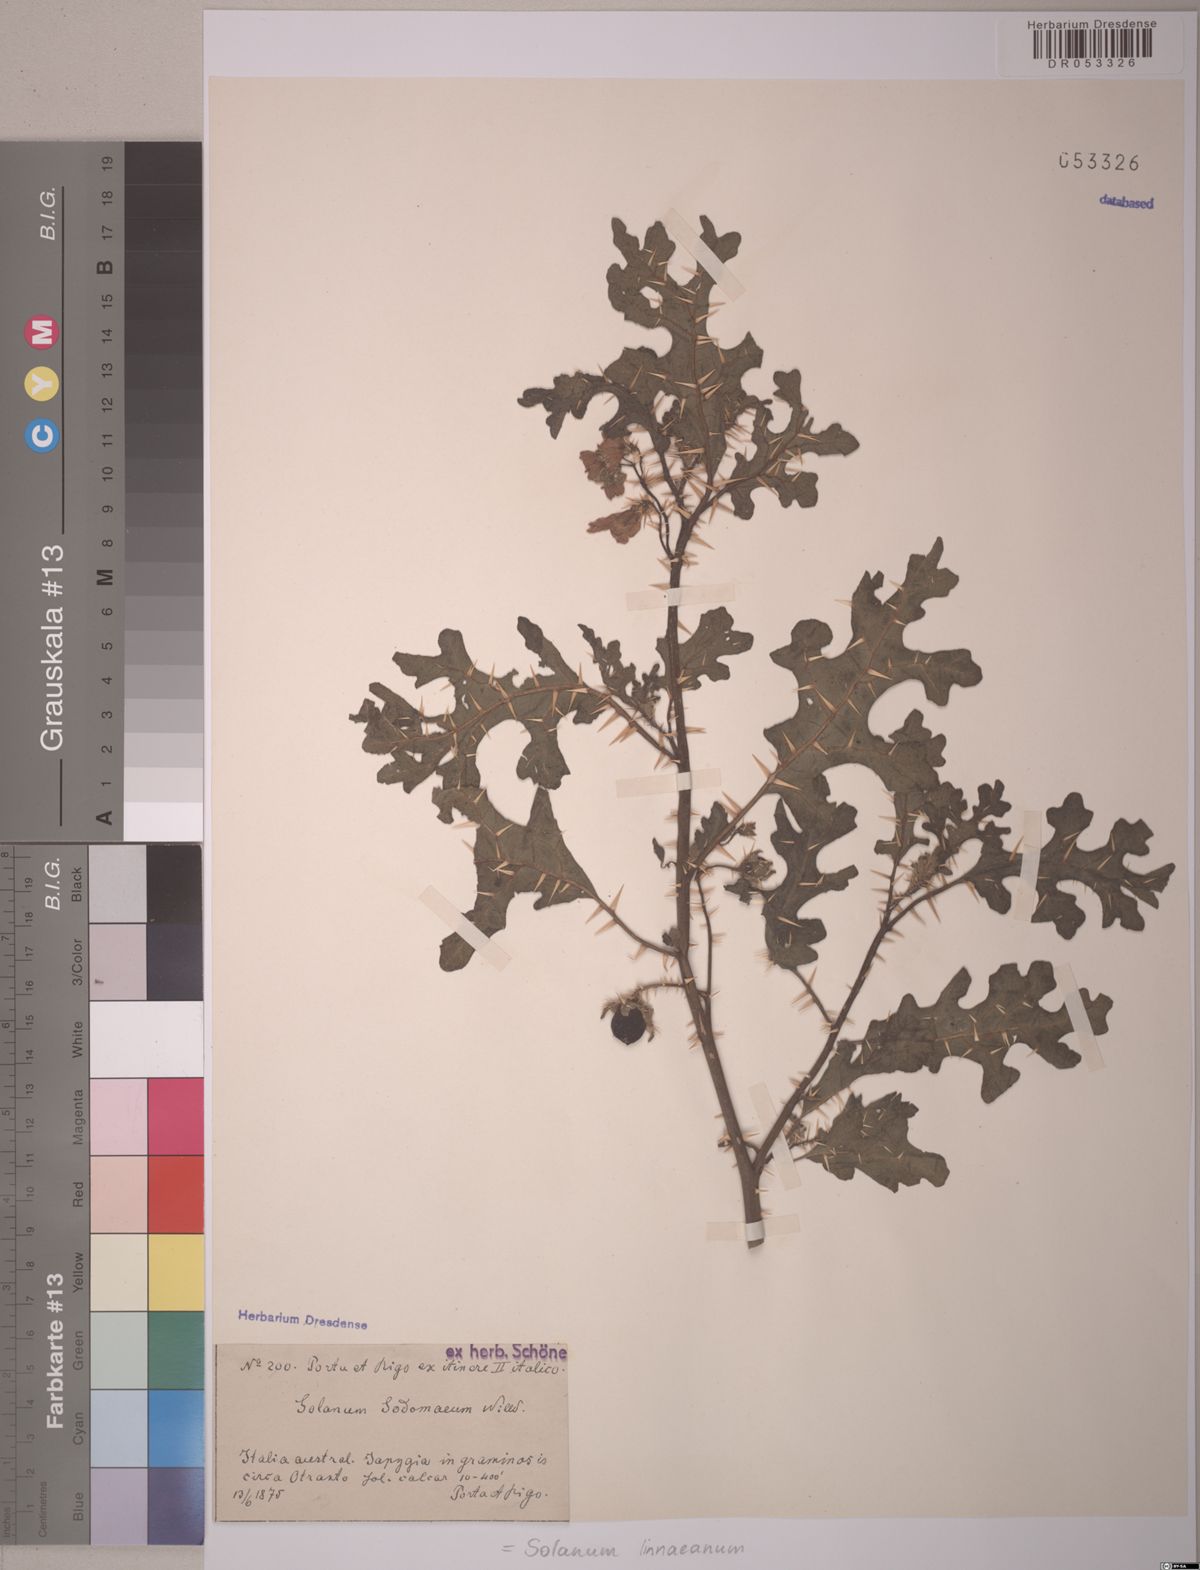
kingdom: Plantae
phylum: Tracheophyta
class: Magnoliopsida
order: Solanales
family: Solanaceae
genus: Solanum
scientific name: Solanum linnaeanum
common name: Nightshade
